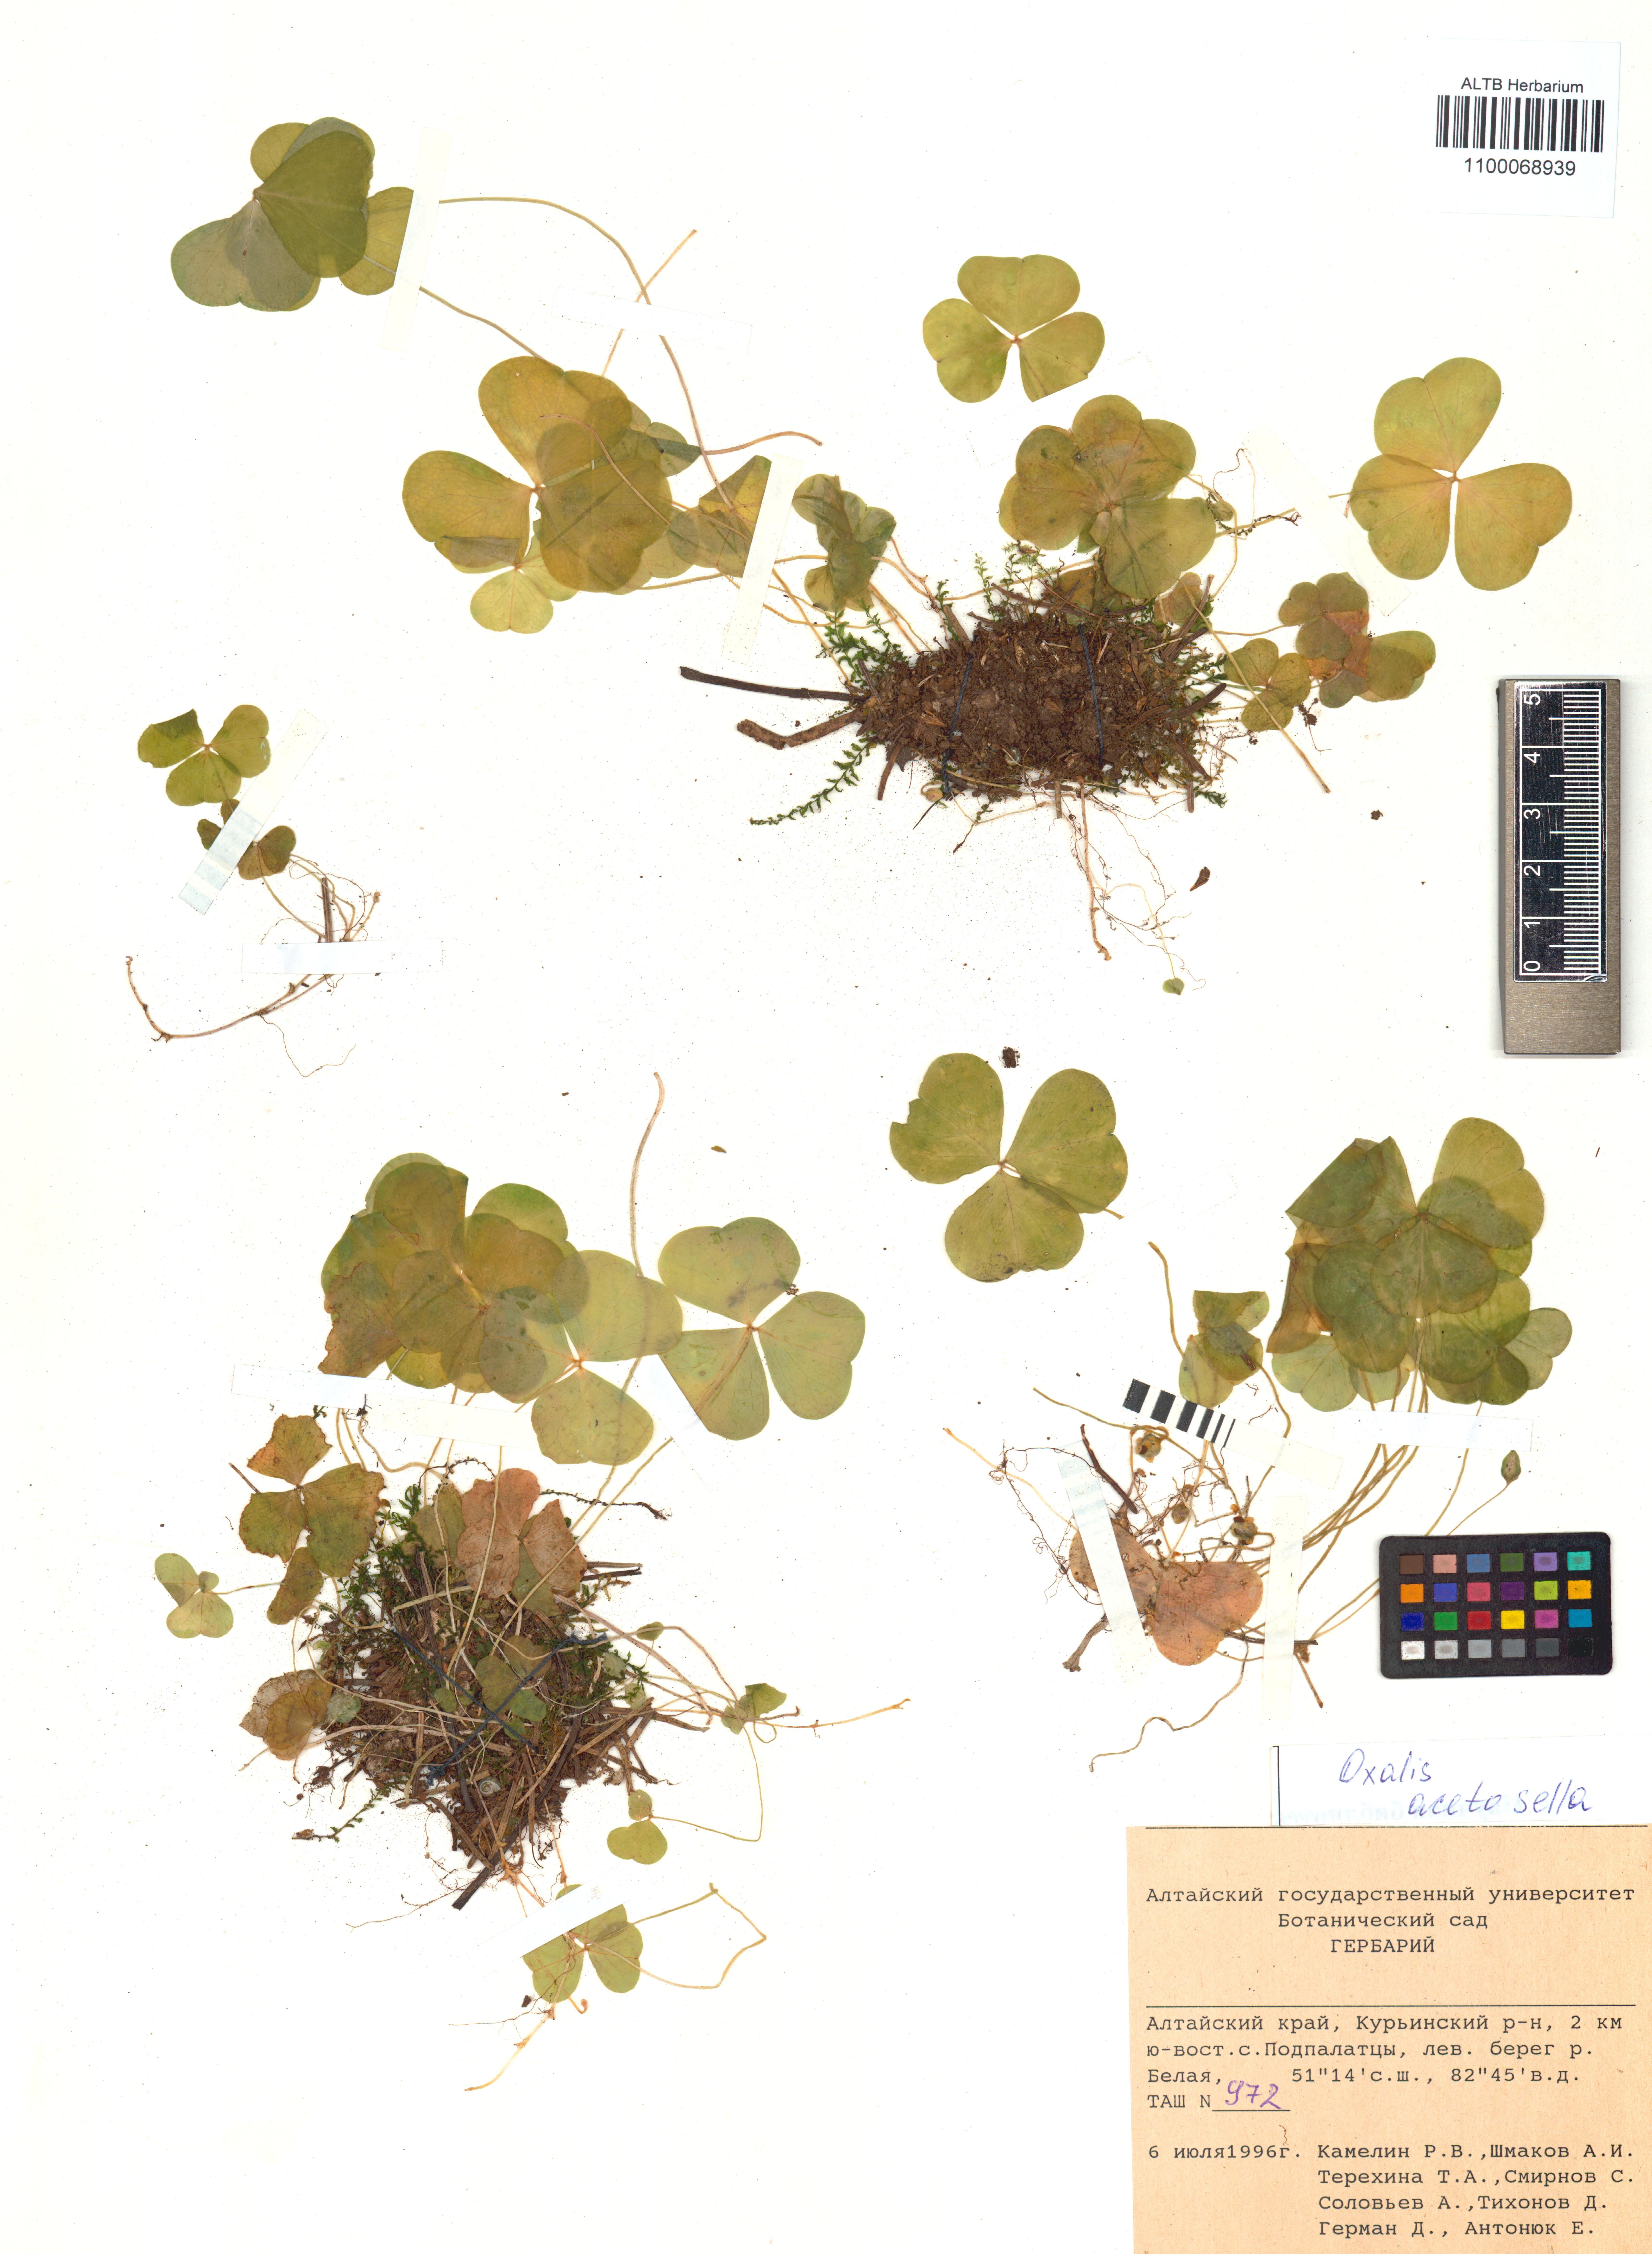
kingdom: Plantae
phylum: Tracheophyta
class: Magnoliopsida
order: Oxalidales
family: Oxalidaceae
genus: Oxalis
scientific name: Oxalis acetosella
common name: Wood-sorrel
